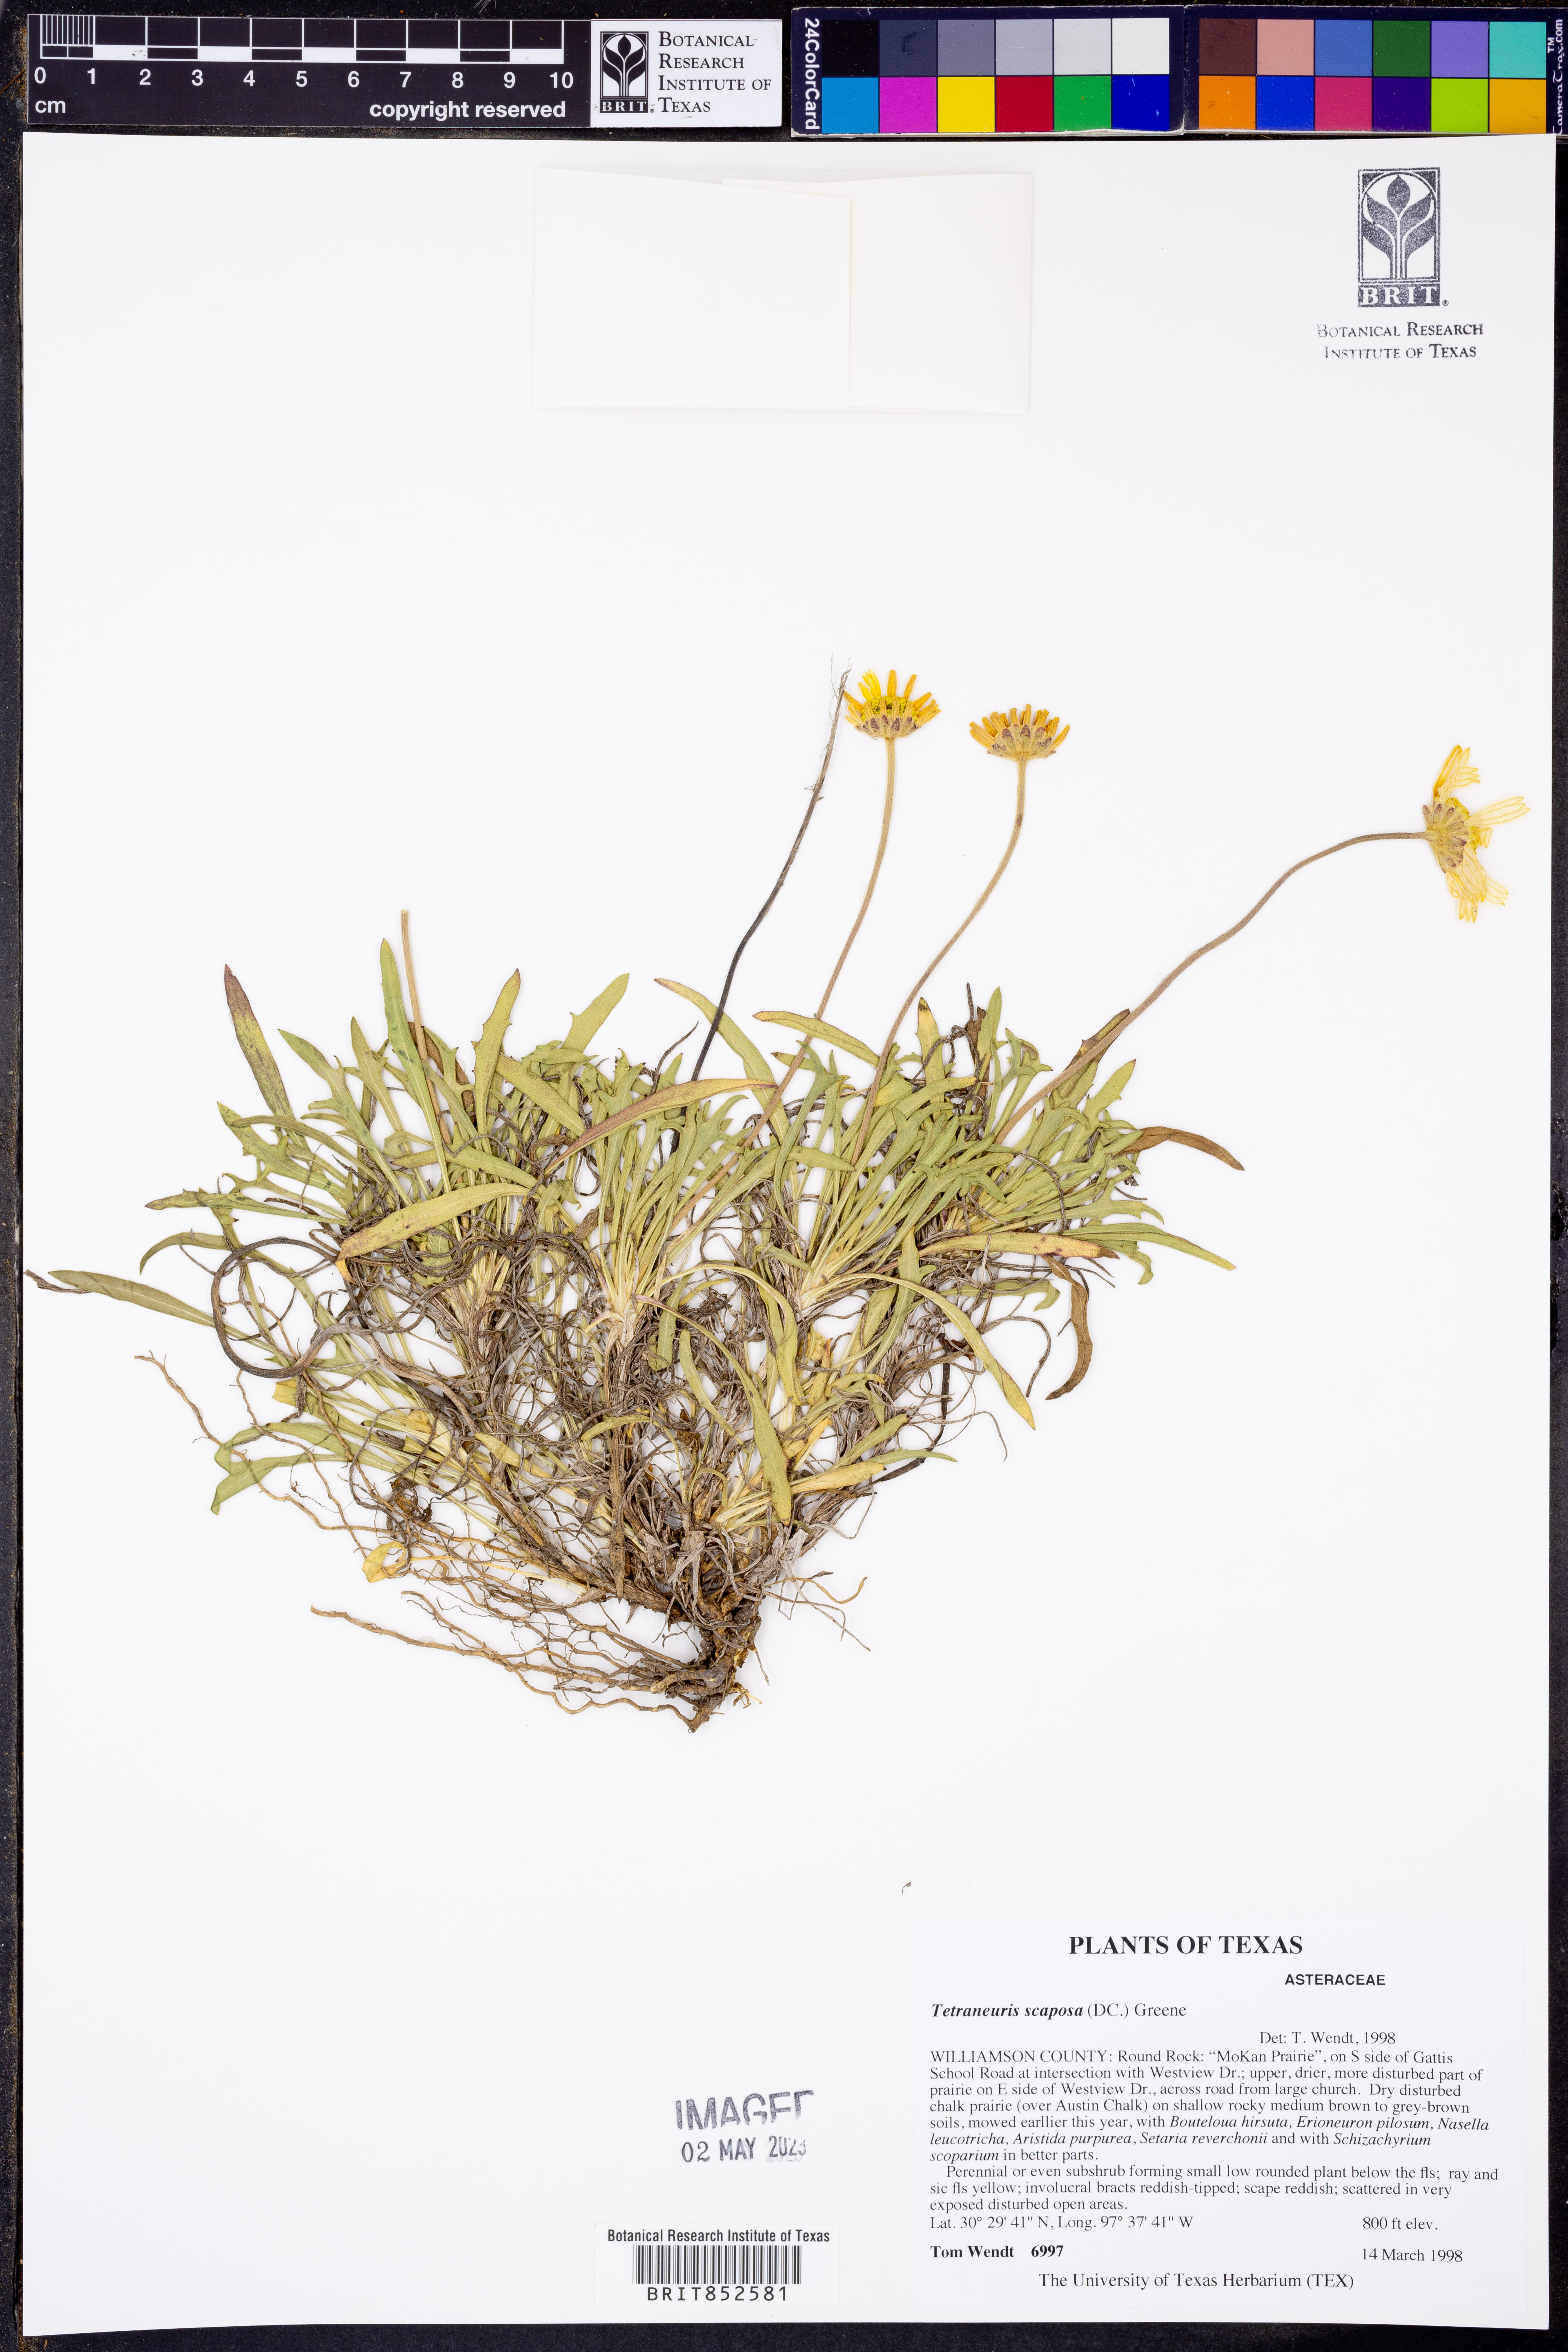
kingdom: Plantae
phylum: Tracheophyta
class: Magnoliopsida
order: Asterales
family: Asteraceae
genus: Tetraneuris
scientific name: Tetraneuris scaposa
